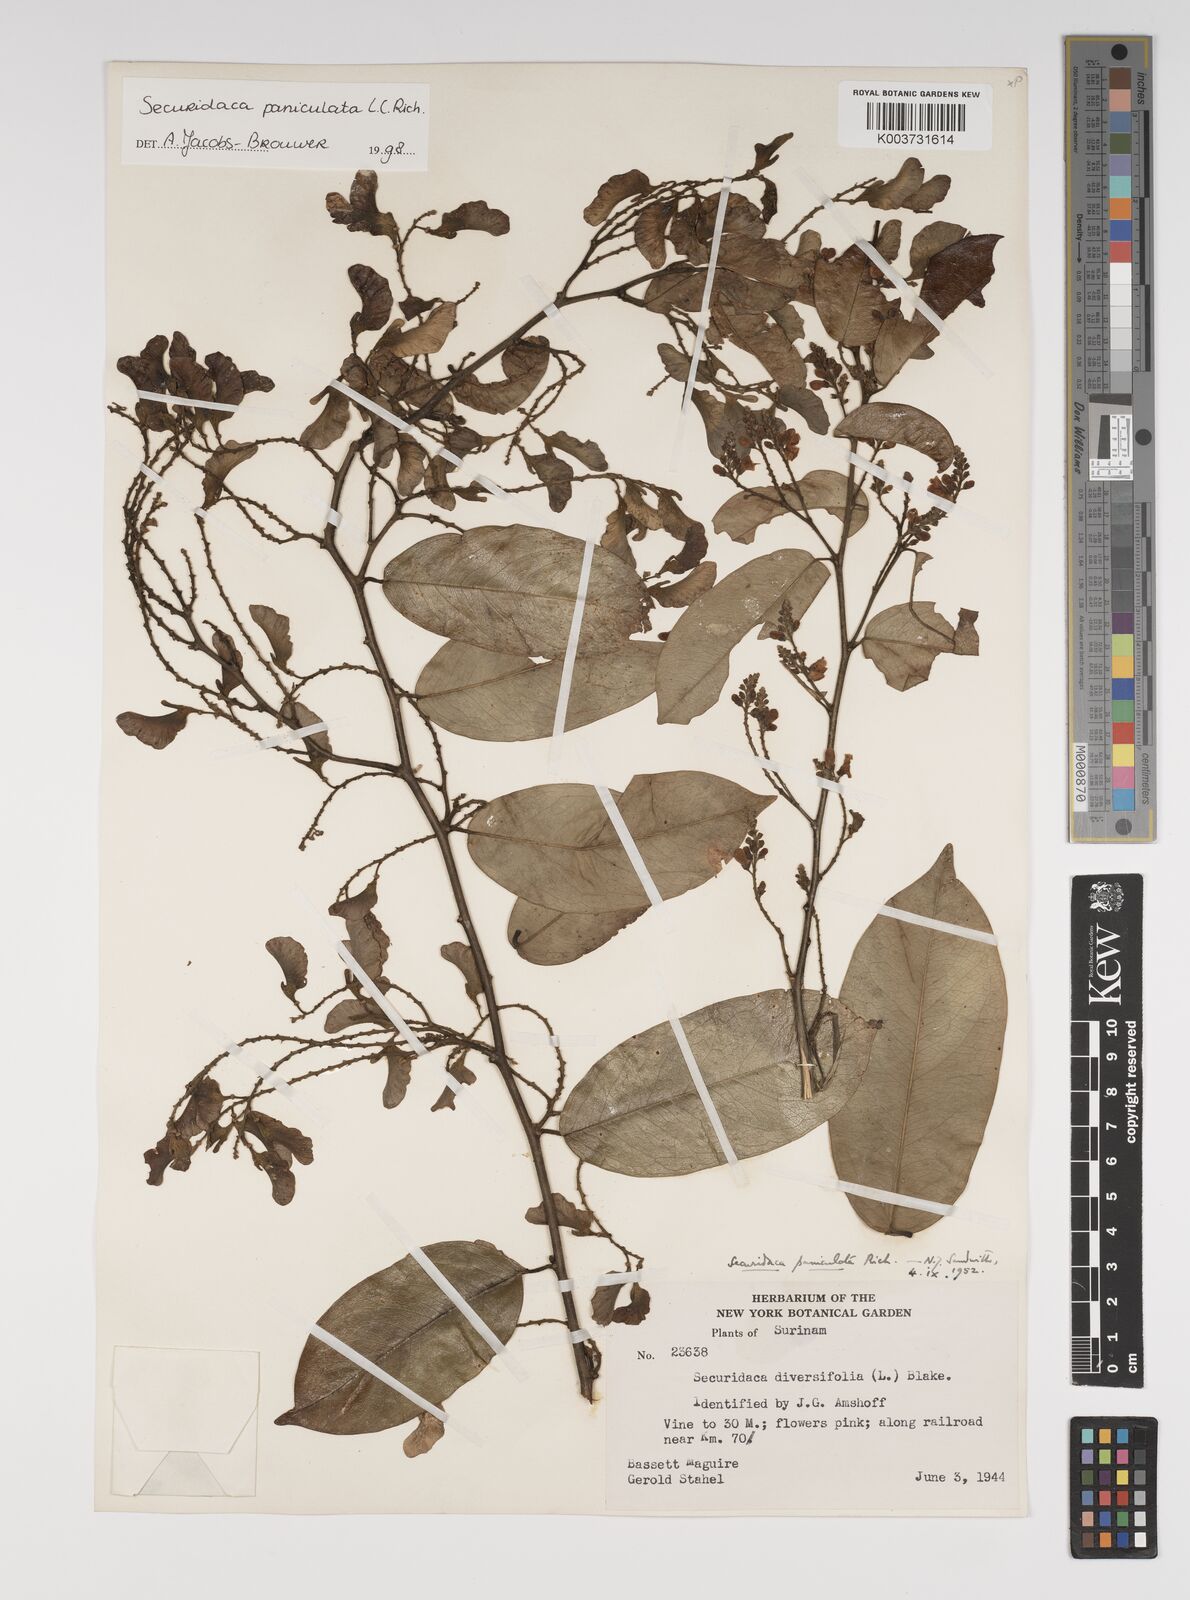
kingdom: Plantae
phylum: Tracheophyta
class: Magnoliopsida
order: Fabales
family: Polygalaceae
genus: Securidaca
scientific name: Securidaca paniculata
